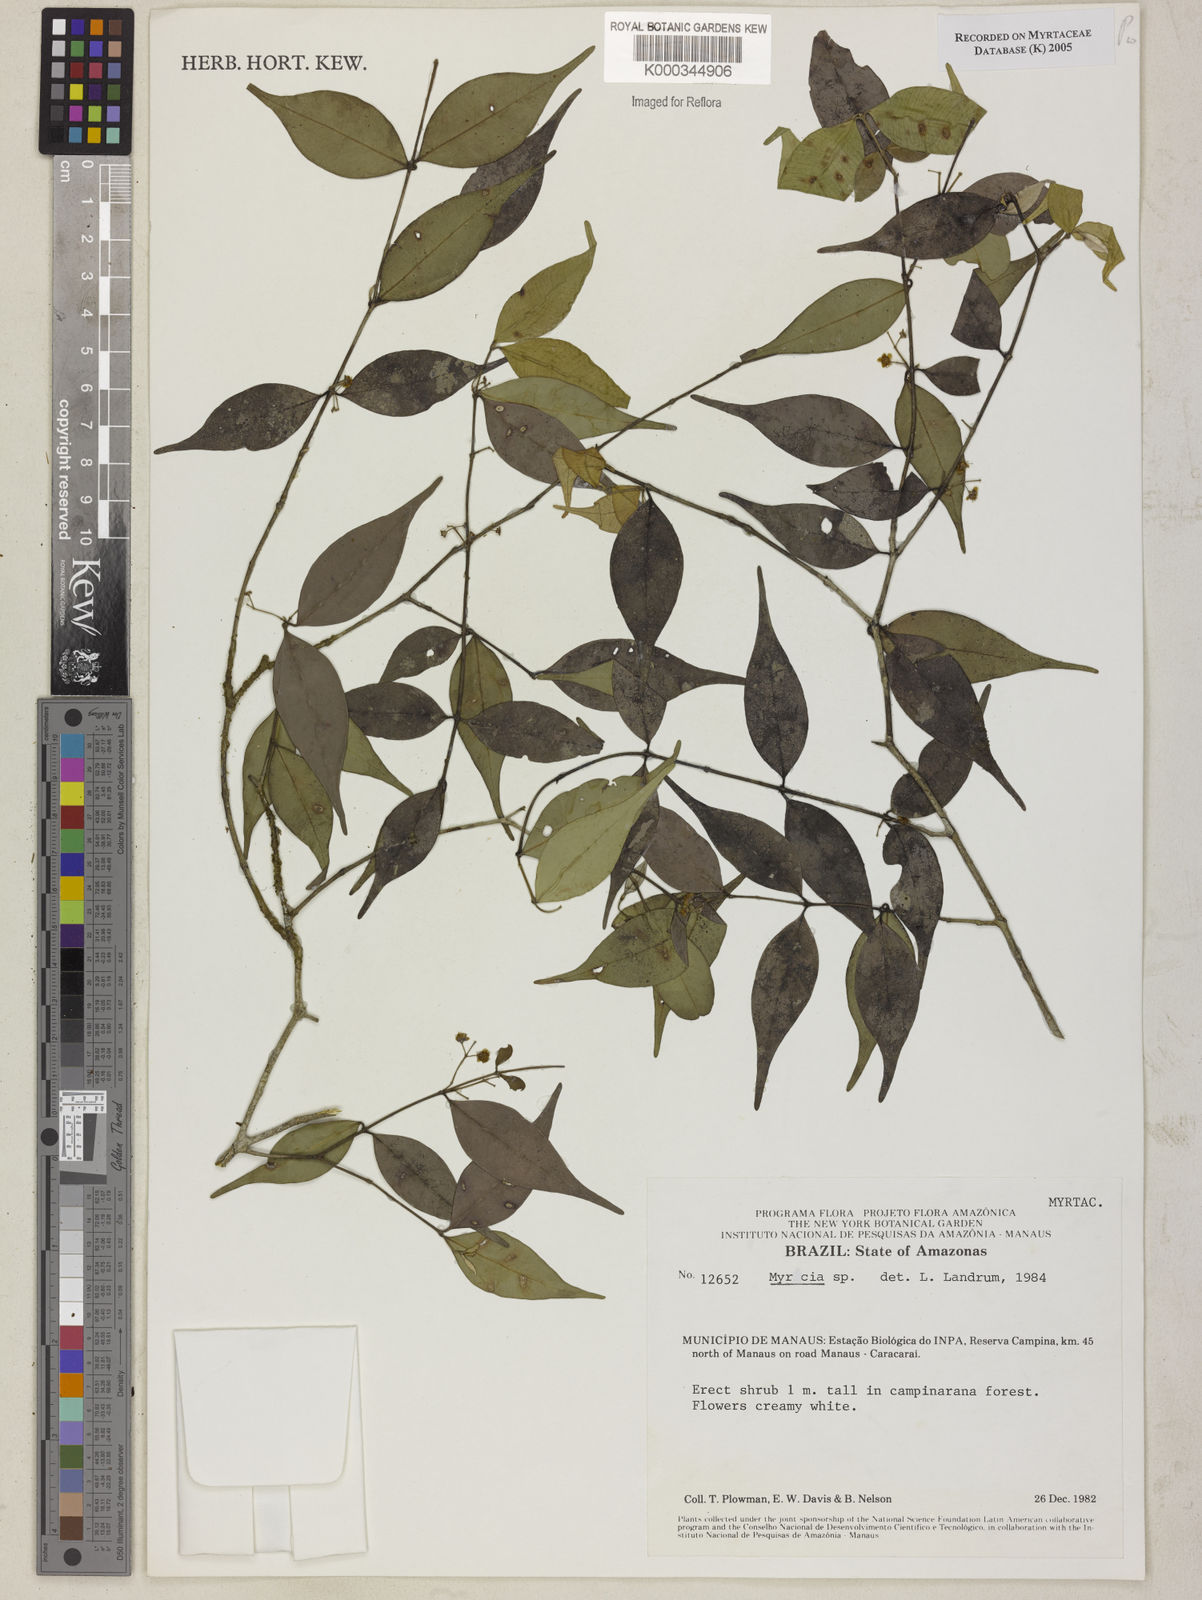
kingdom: Plantae
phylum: Tracheophyta
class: Magnoliopsida
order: Myrtales
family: Myrtaceae
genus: Myrcia
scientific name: Myrcia
